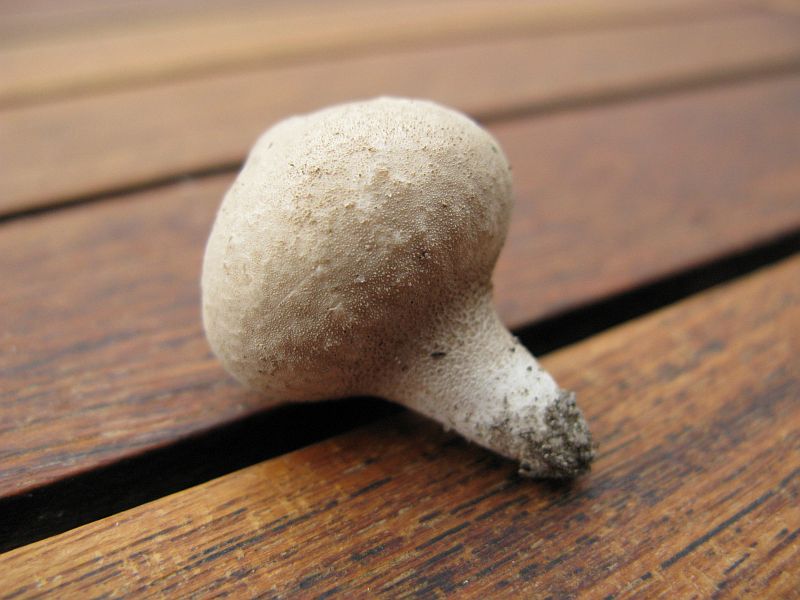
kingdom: Fungi
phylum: Basidiomycota
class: Agaricomycetes
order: Agaricales
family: Lycoperdaceae
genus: Lycoperdon
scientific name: Lycoperdon lividum
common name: mark-støvbold
